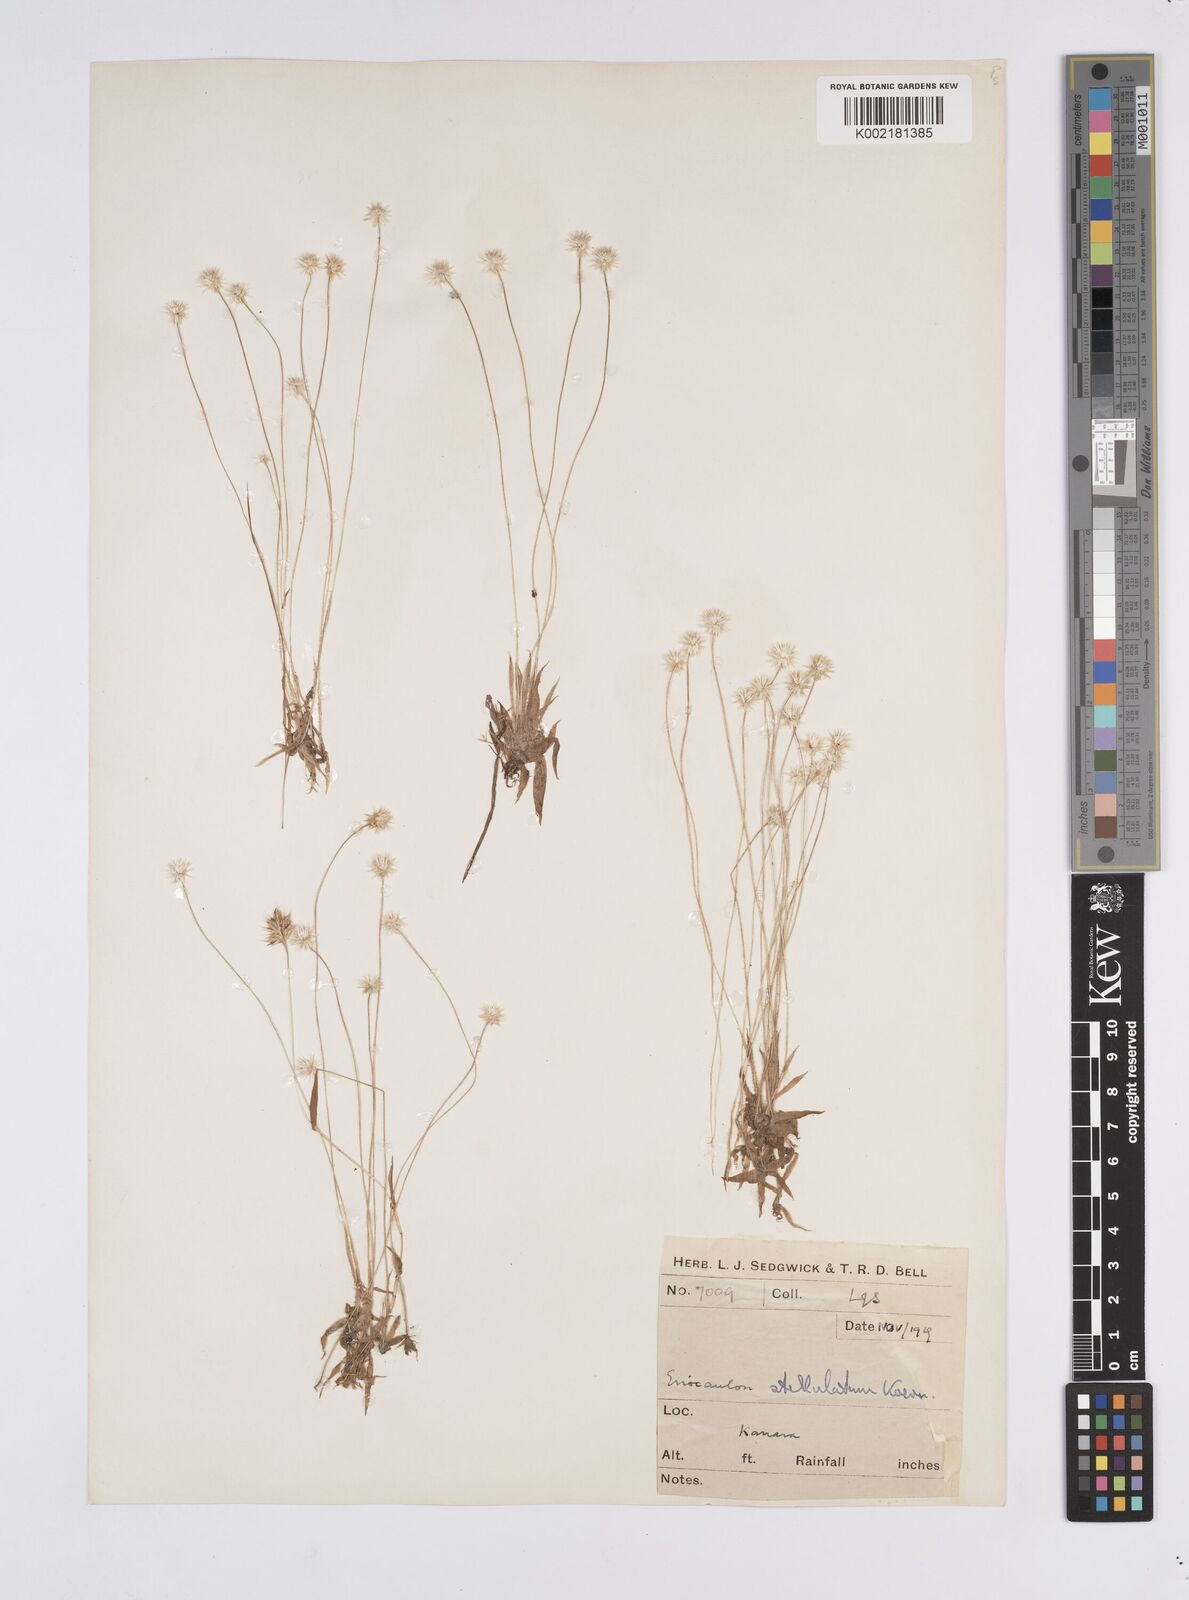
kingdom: Plantae
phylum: Tracheophyta
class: Liliopsida
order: Poales
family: Eriocaulaceae
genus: Eriocaulon
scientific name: Eriocaulon stellulatum
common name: Starry pipewort
